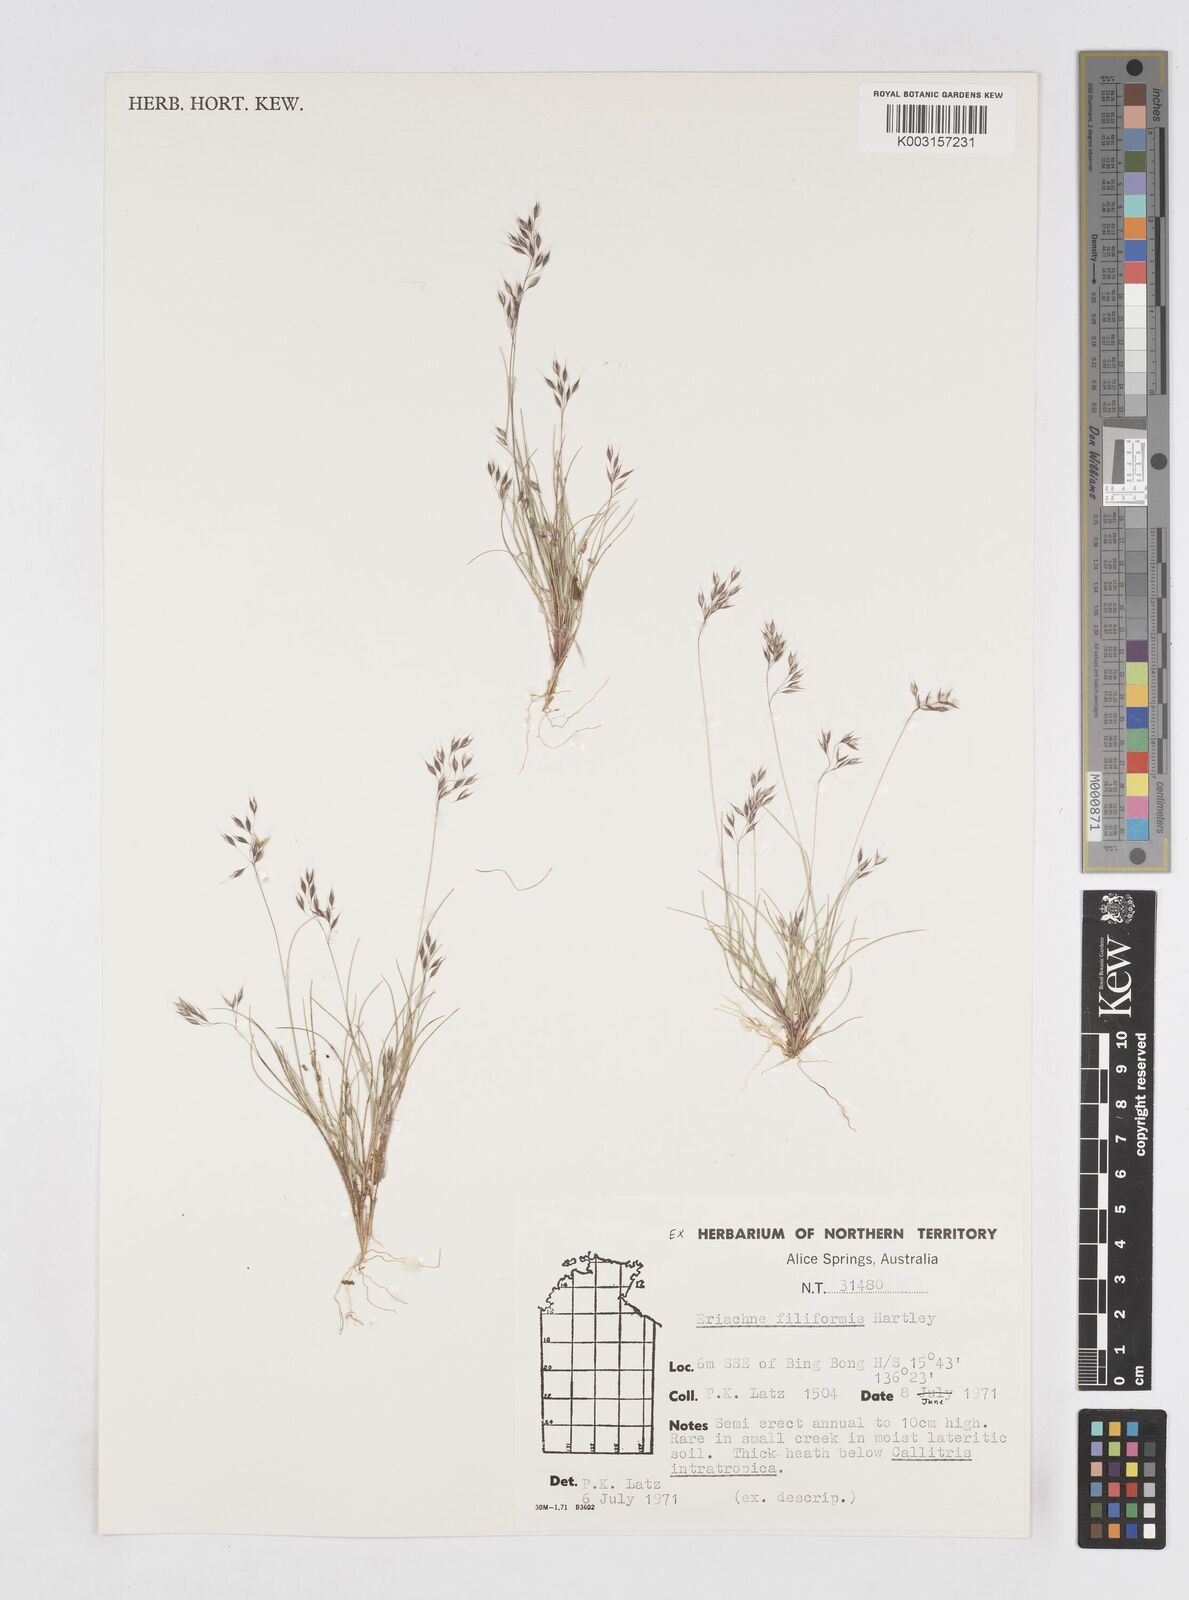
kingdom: Plantae
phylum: Tracheophyta
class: Liliopsida
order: Poales
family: Poaceae
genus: Eriachne
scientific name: Eriachne filiformis
